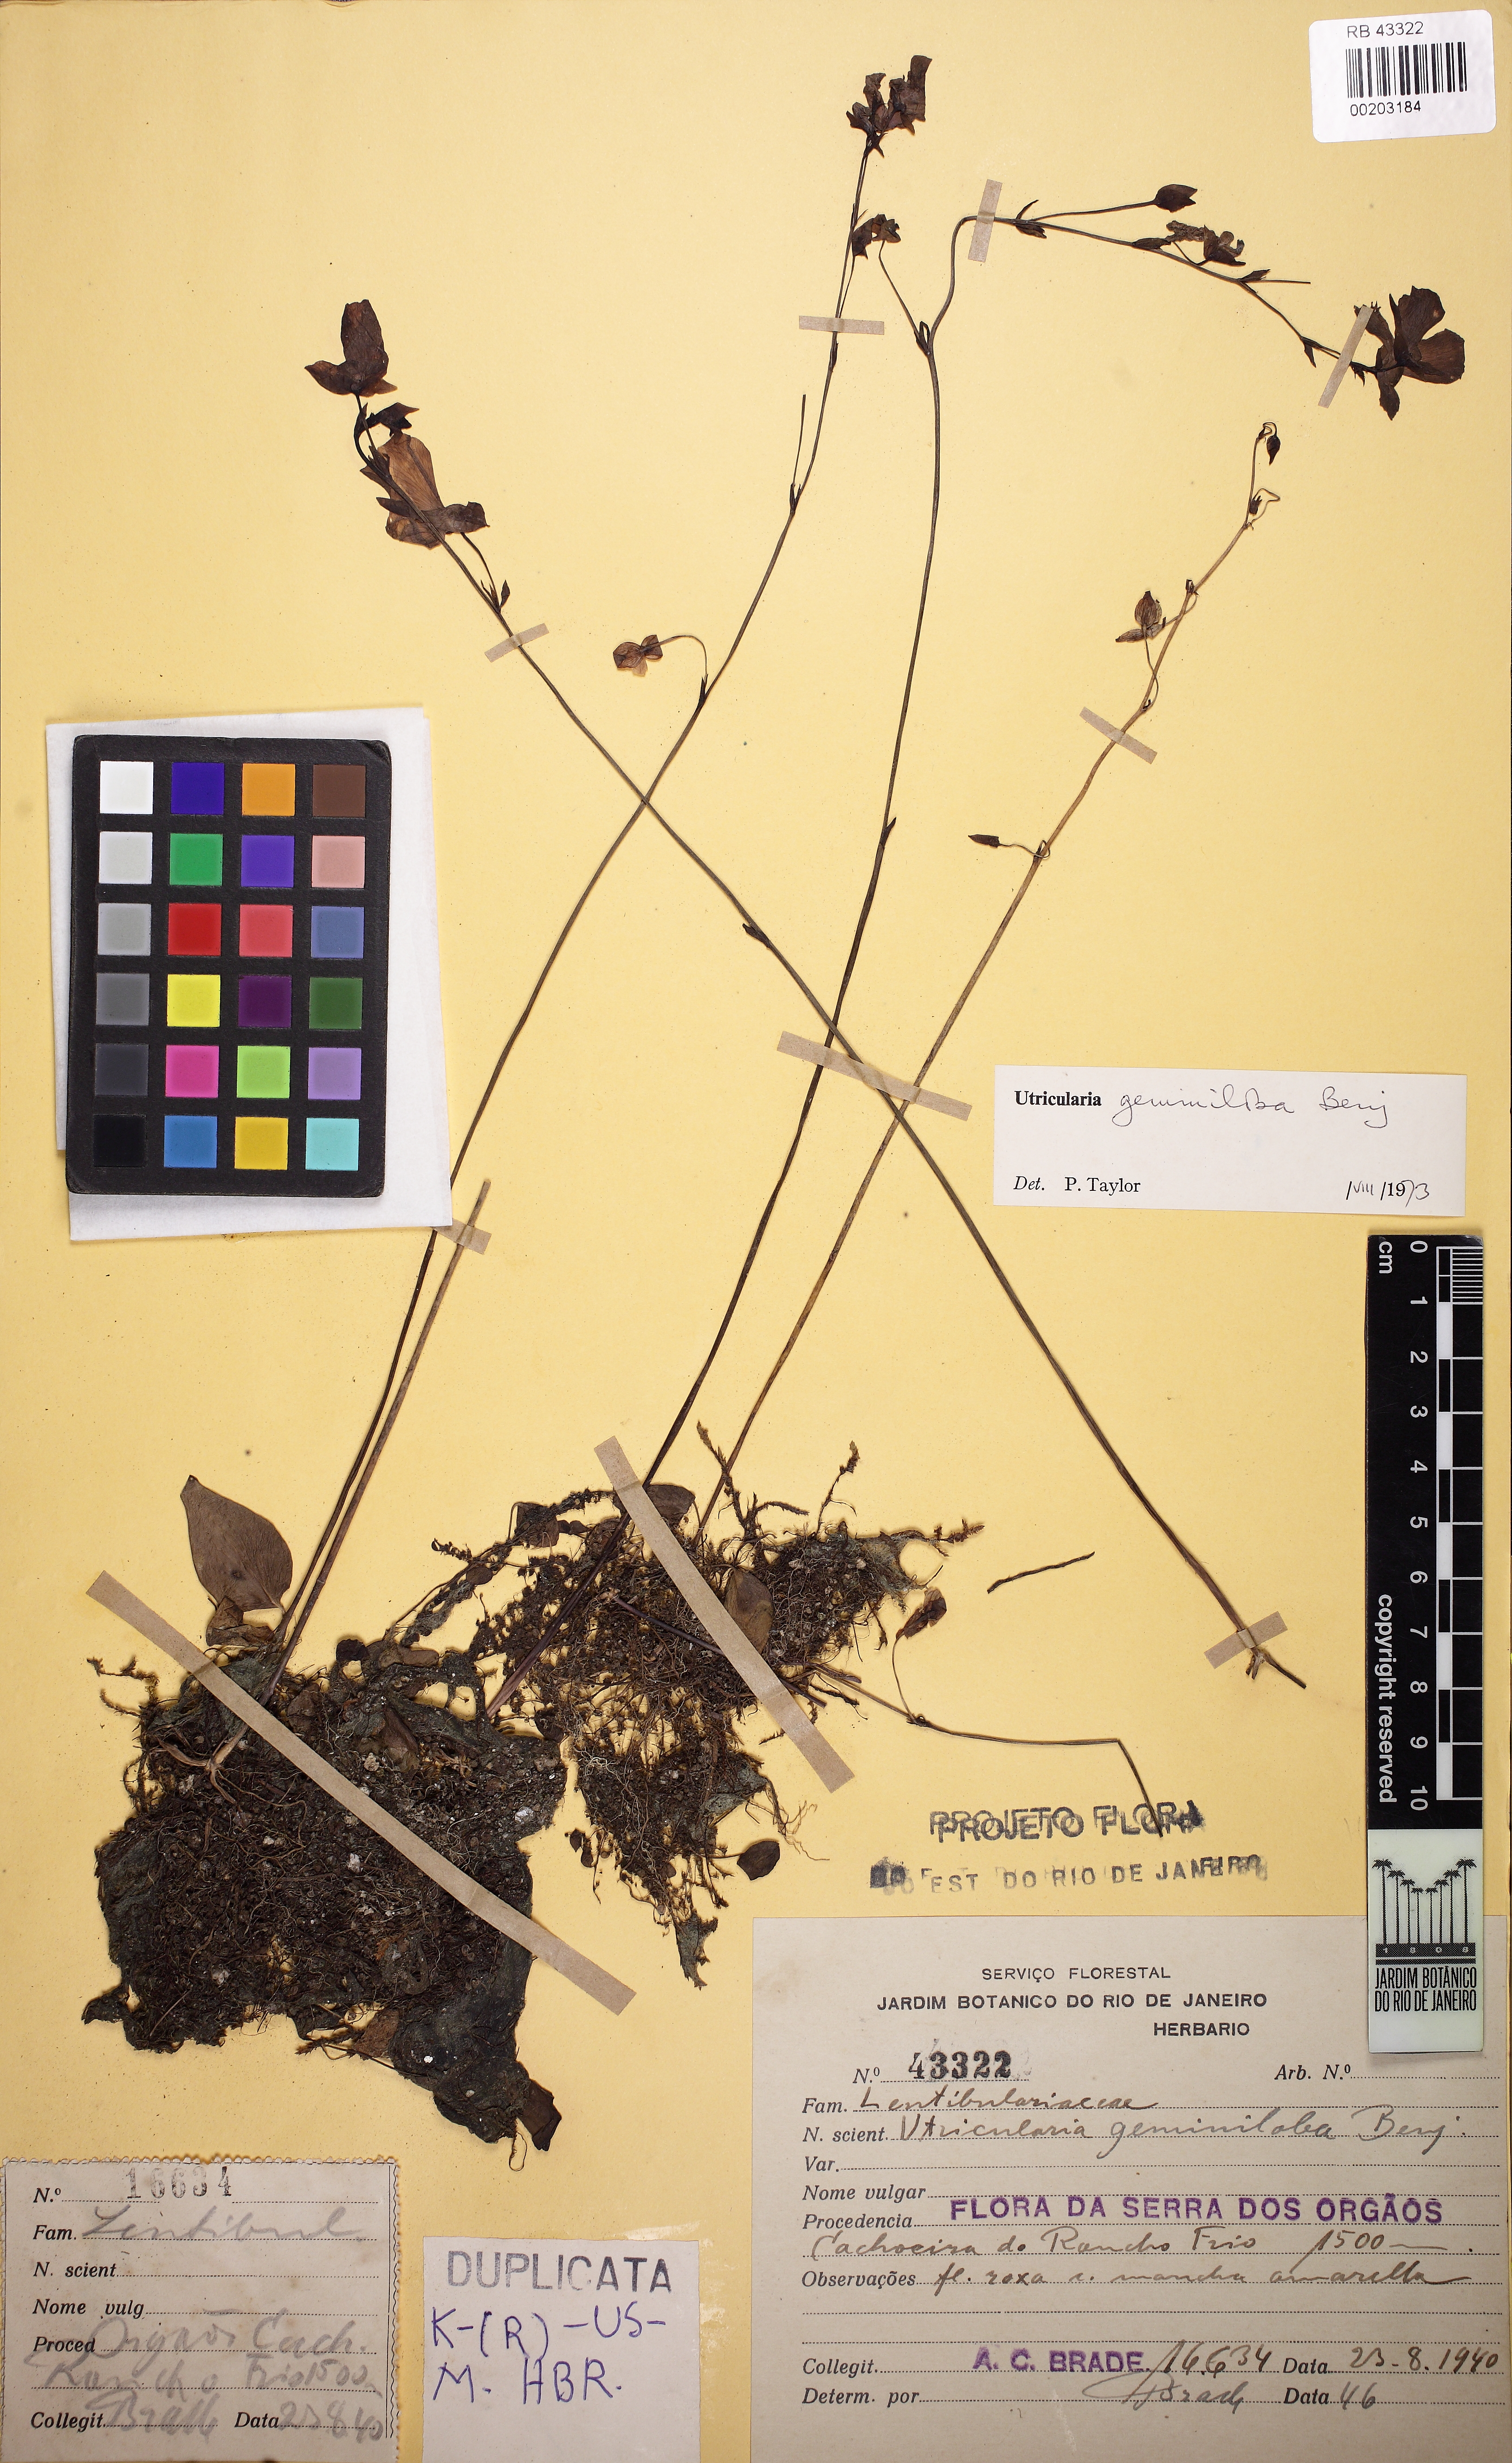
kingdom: Plantae
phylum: Tracheophyta
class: Magnoliopsida
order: Lamiales
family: Lentibulariaceae
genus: Utricularia
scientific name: Utricularia geminiloba
